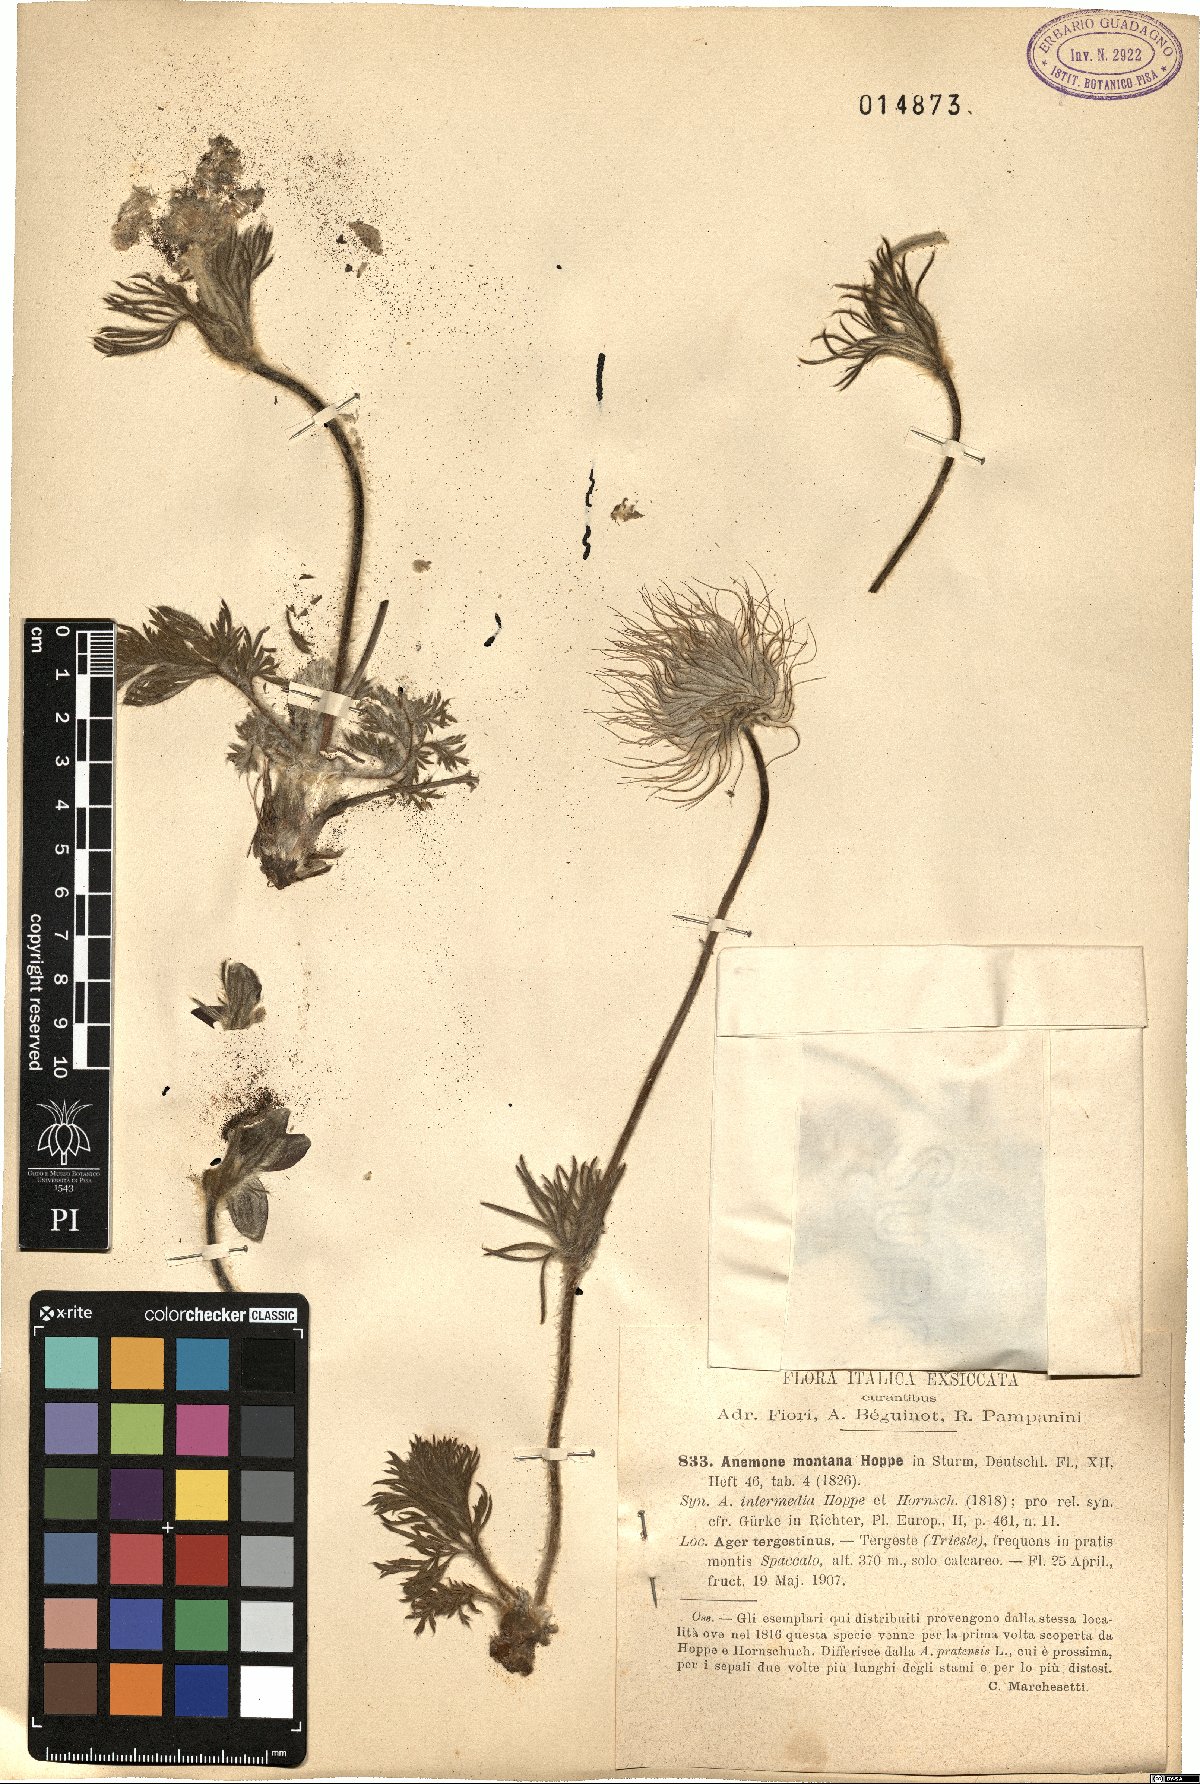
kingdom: Plantae
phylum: Tracheophyta
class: Magnoliopsida
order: Ranunculales
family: Ranunculaceae
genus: Pulsatilla
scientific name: Pulsatilla montana
